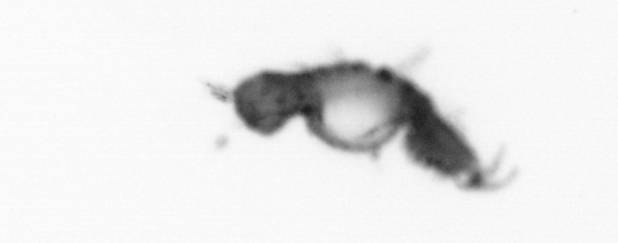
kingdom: Animalia
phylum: Annelida
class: Polychaeta
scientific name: Polychaeta
